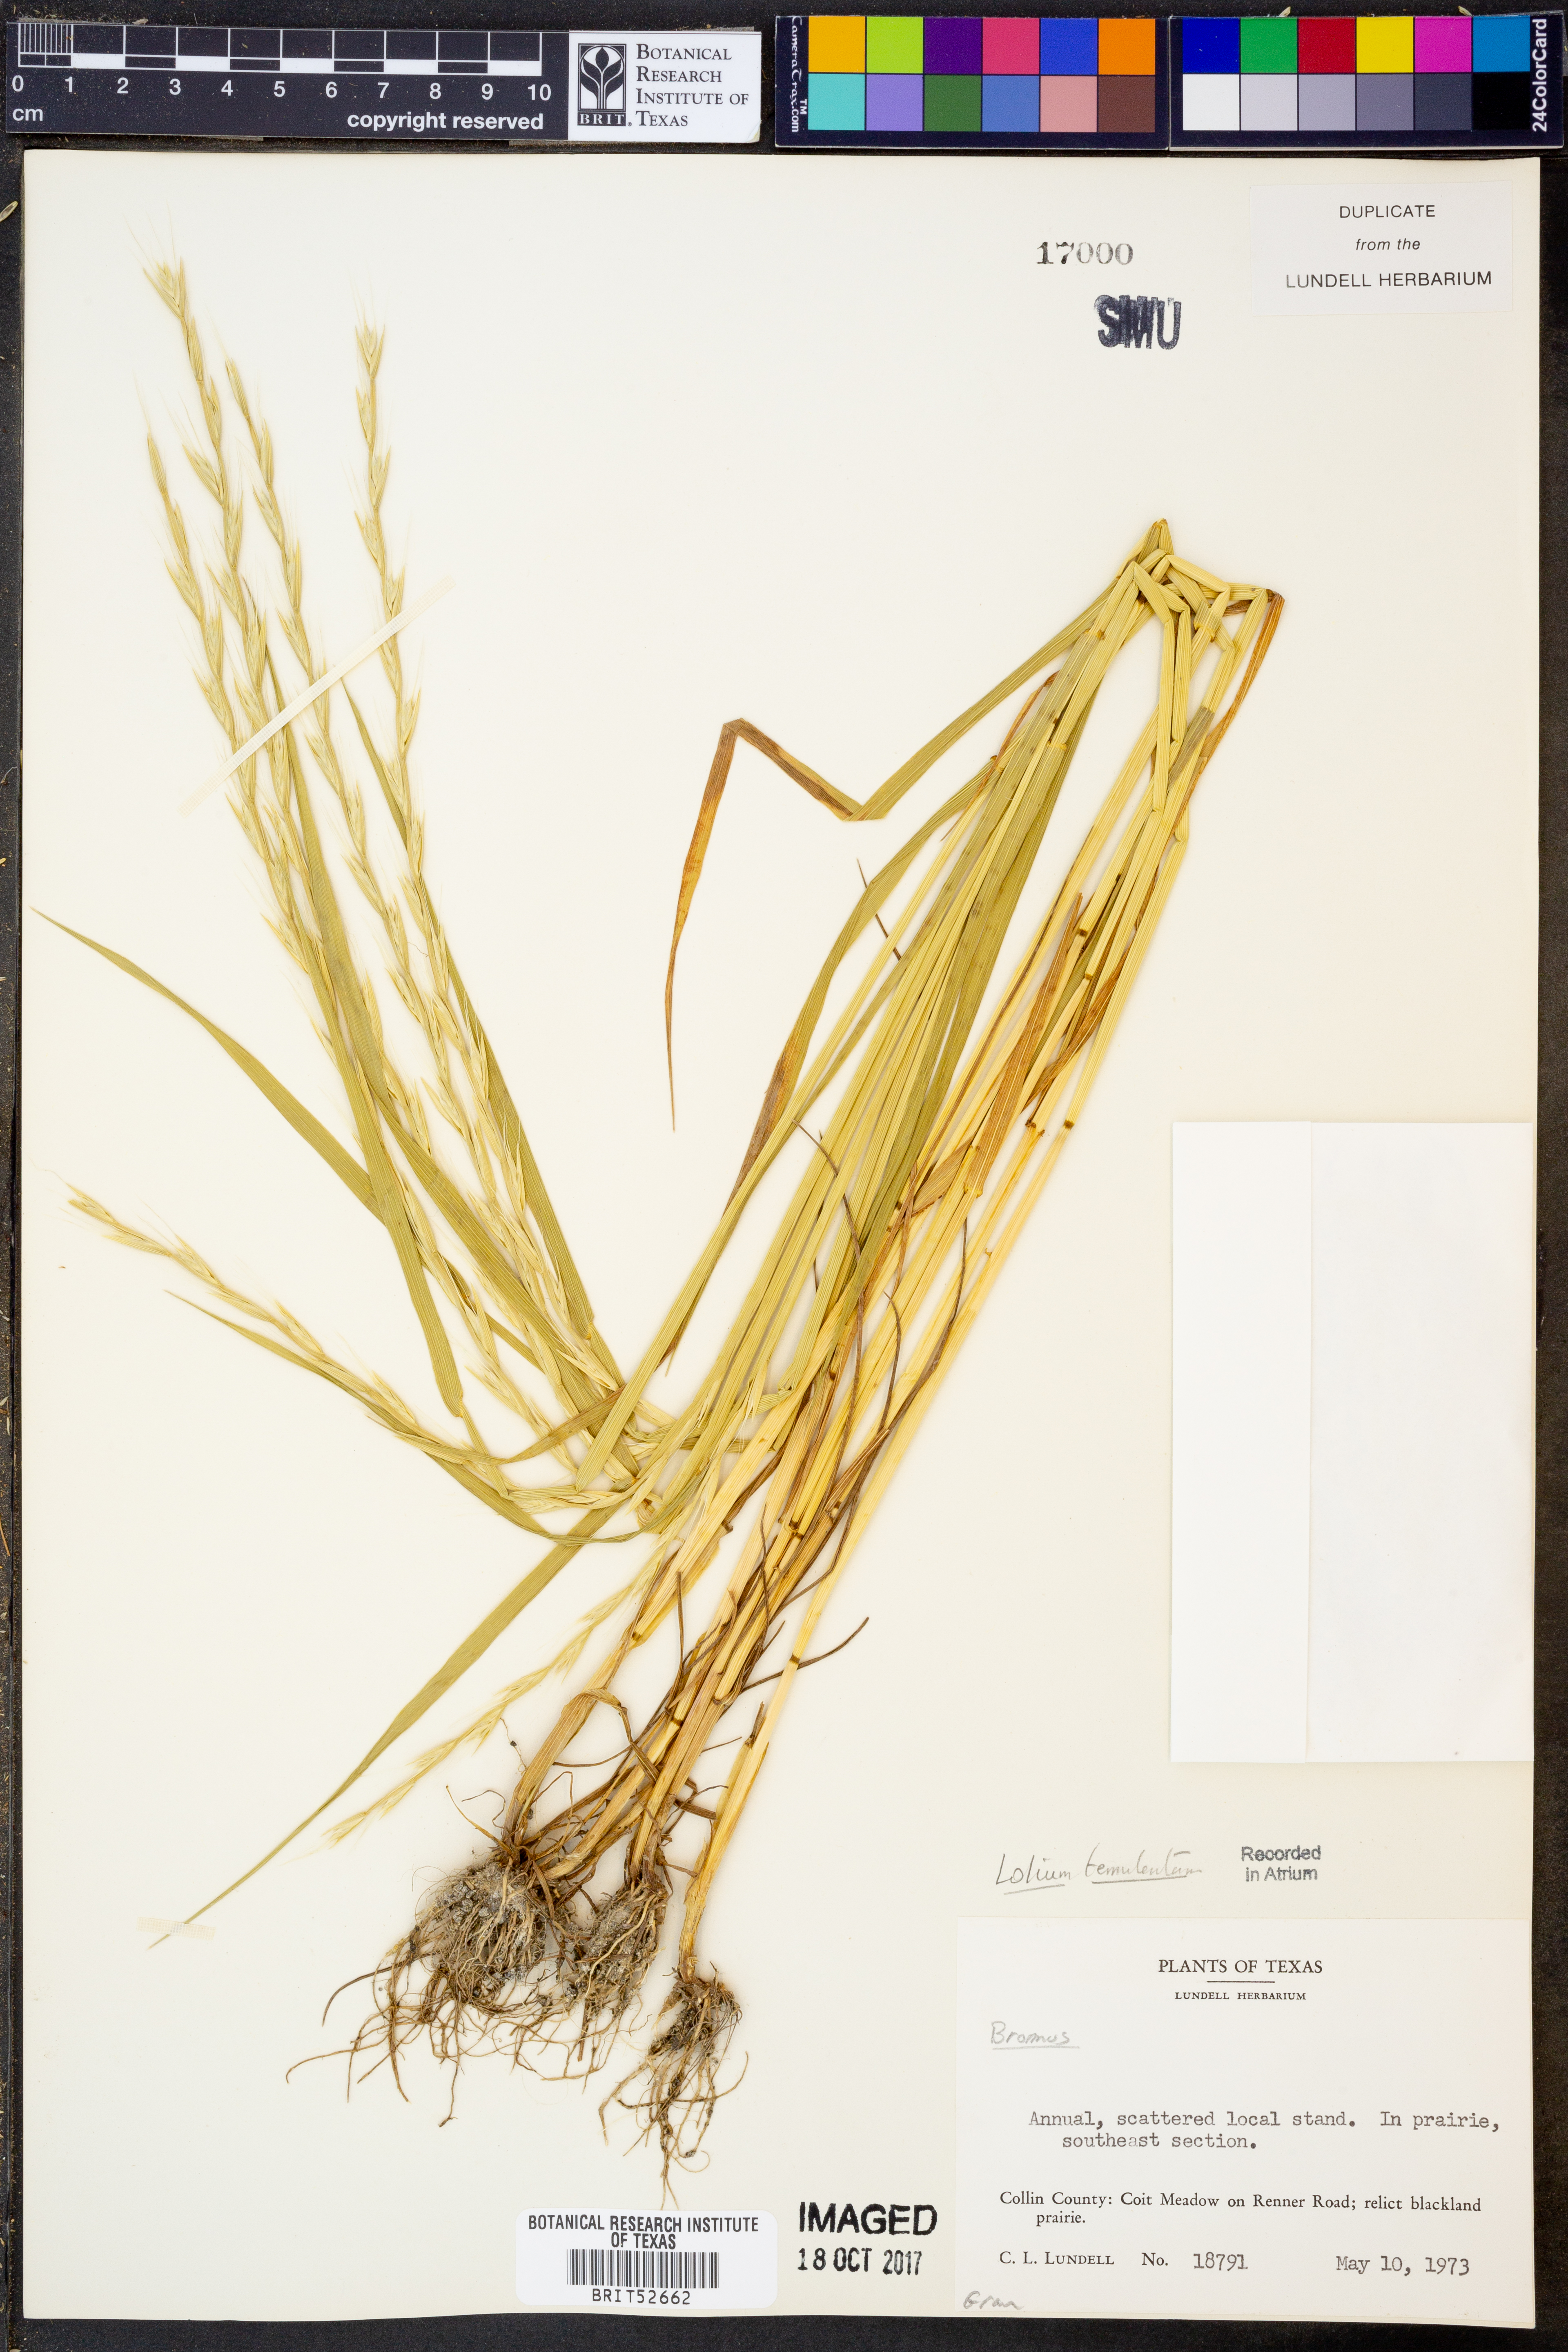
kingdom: Plantae
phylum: Tracheophyta
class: Liliopsida
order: Poales
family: Poaceae
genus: Lolium
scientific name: Lolium temulentum
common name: Darnel
